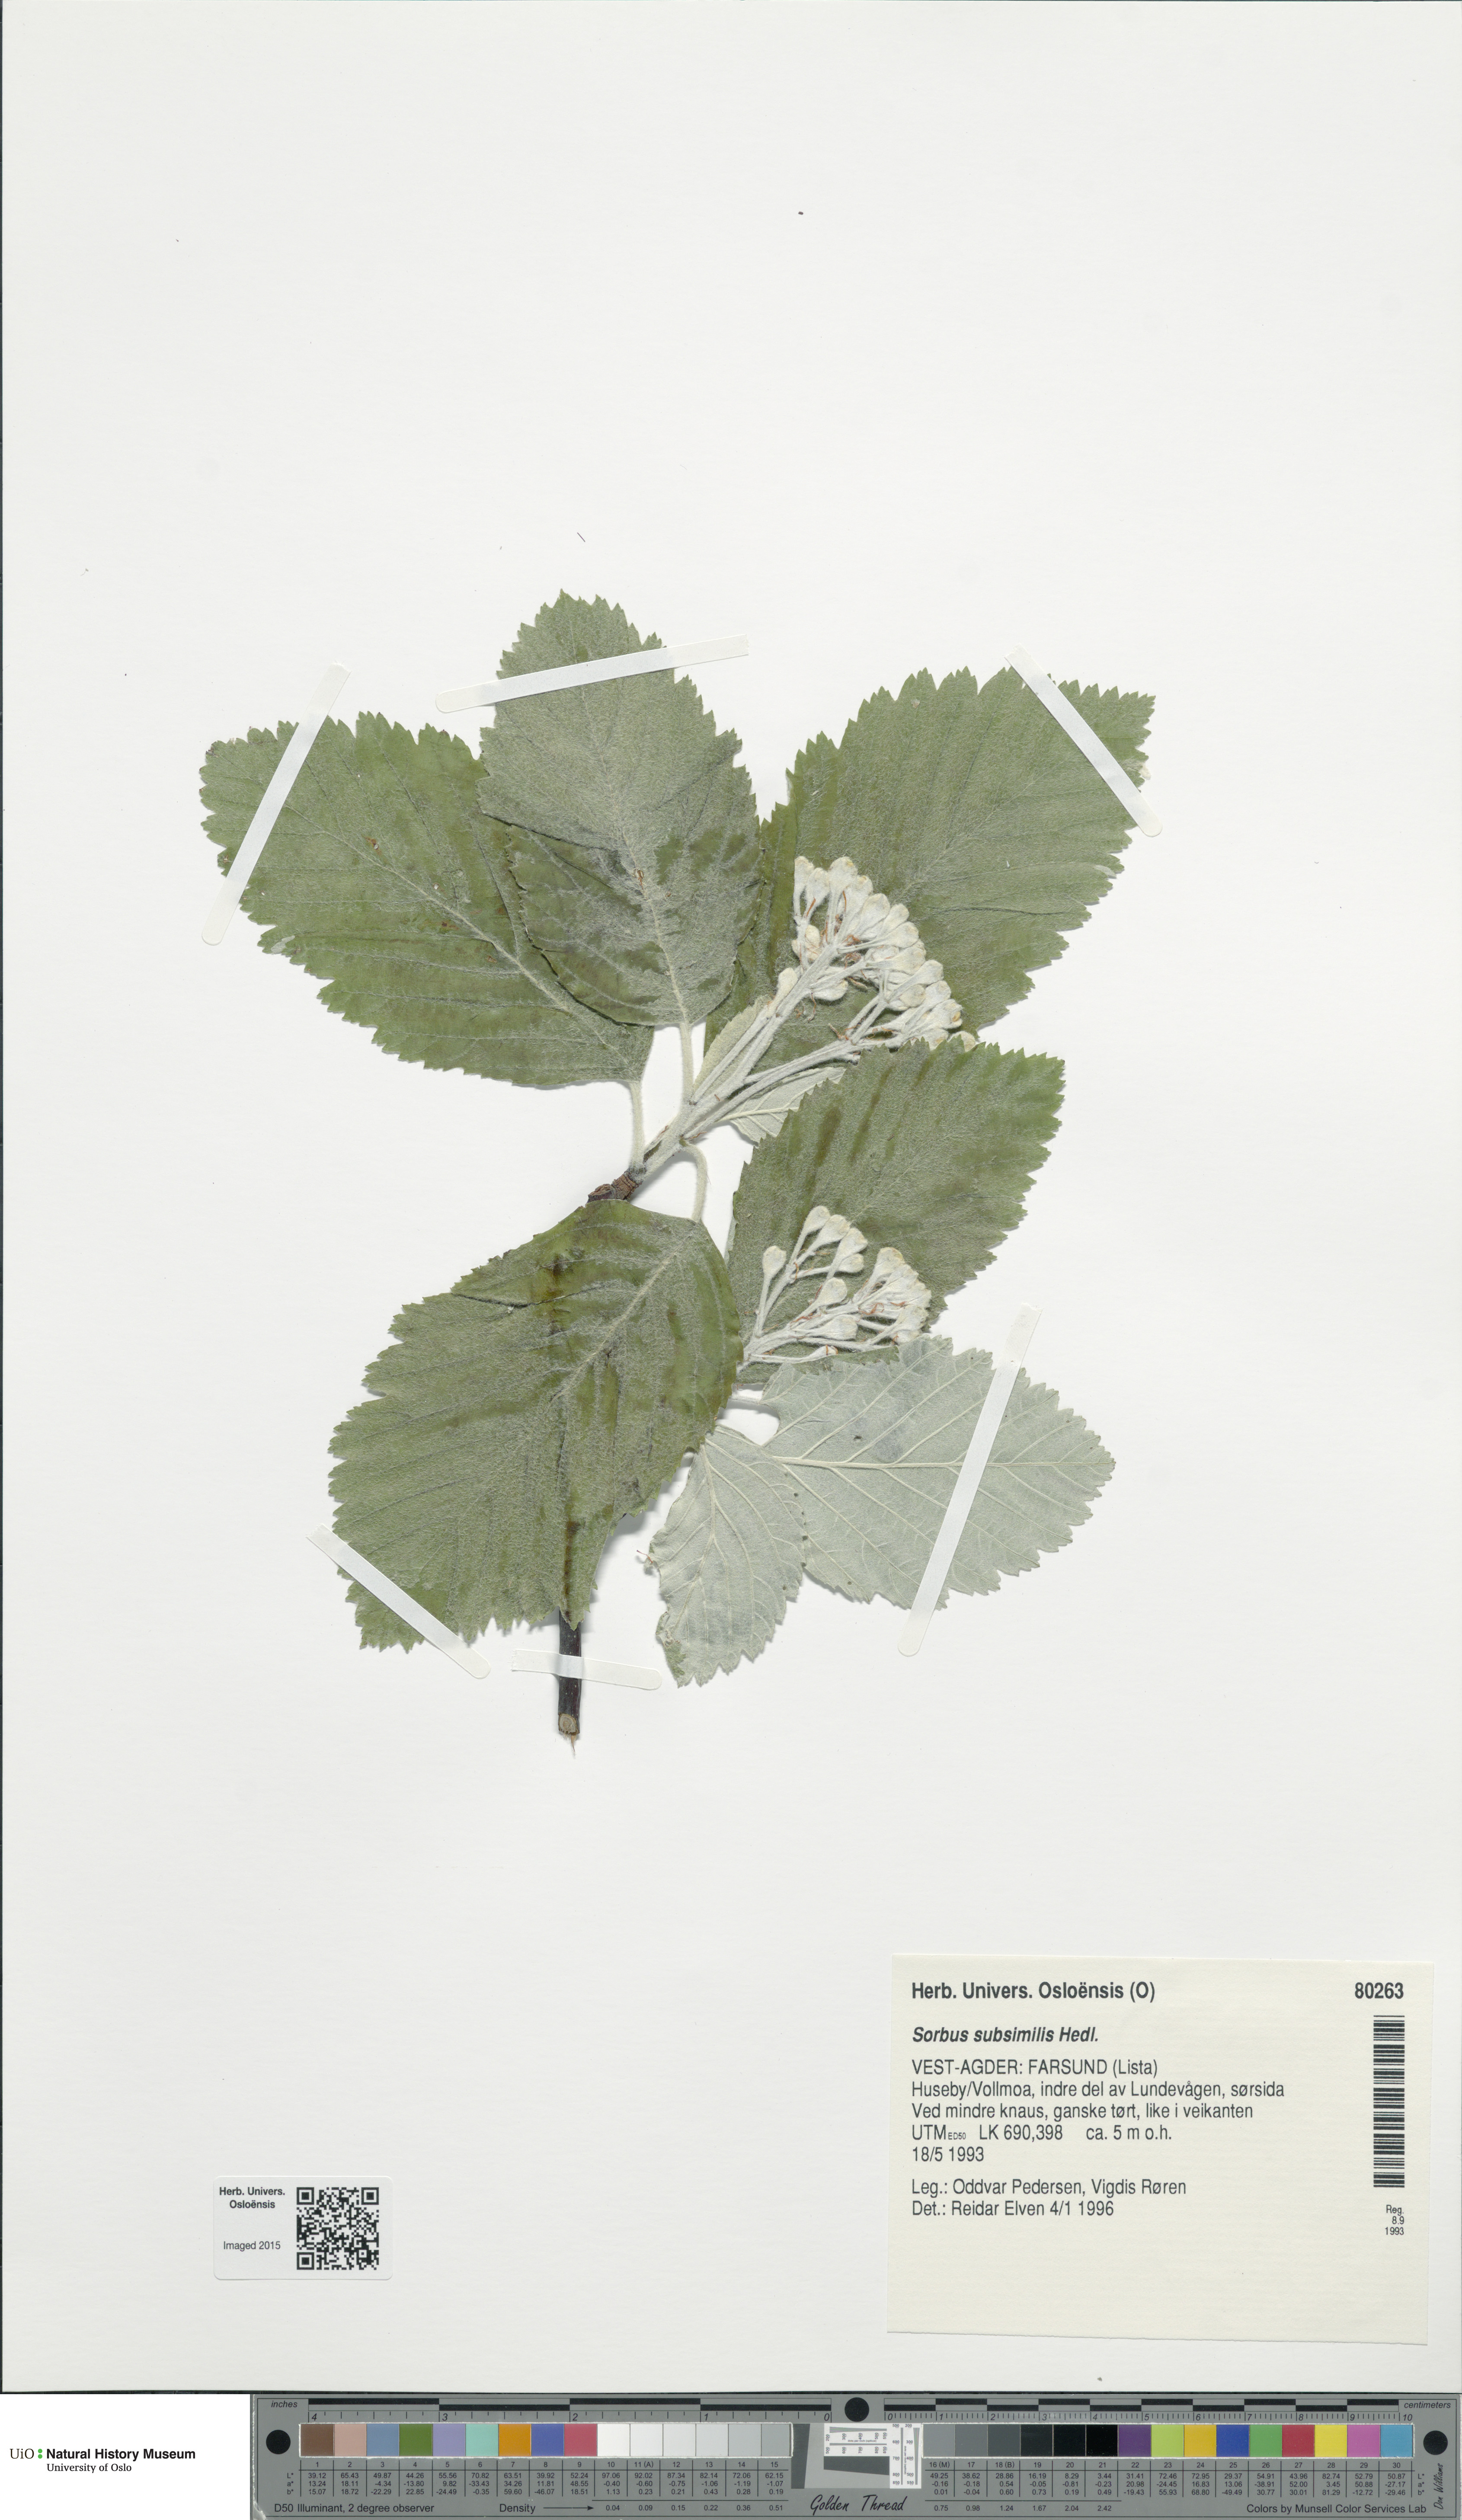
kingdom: Plantae
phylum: Tracheophyta
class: Magnoliopsida
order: Rosales
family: Rosaceae
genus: Hedlundia
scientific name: Hedlundia subsimilis
